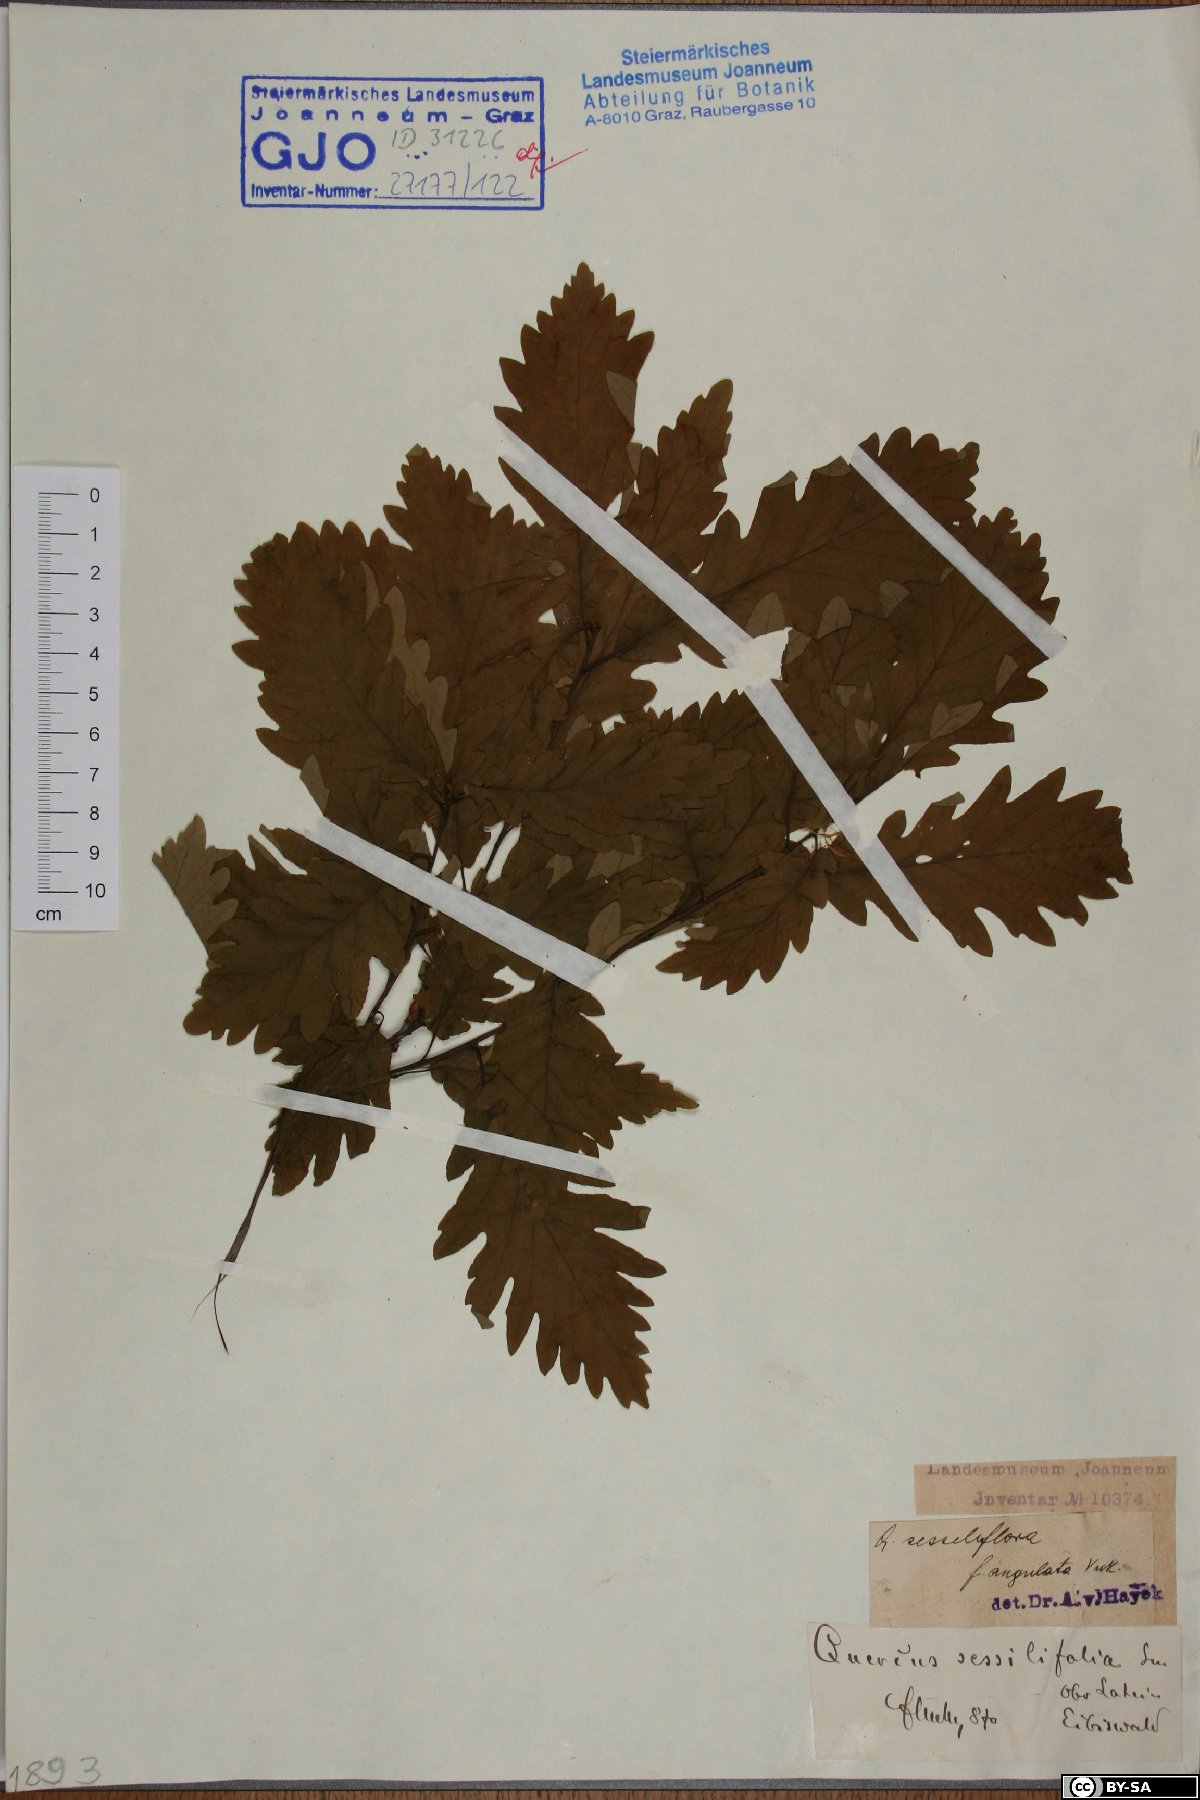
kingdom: Plantae
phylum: Tracheophyta
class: Magnoliopsida
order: Fagales
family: Fagaceae
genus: Quercus
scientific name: Quercus petraea
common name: Sessile oak
